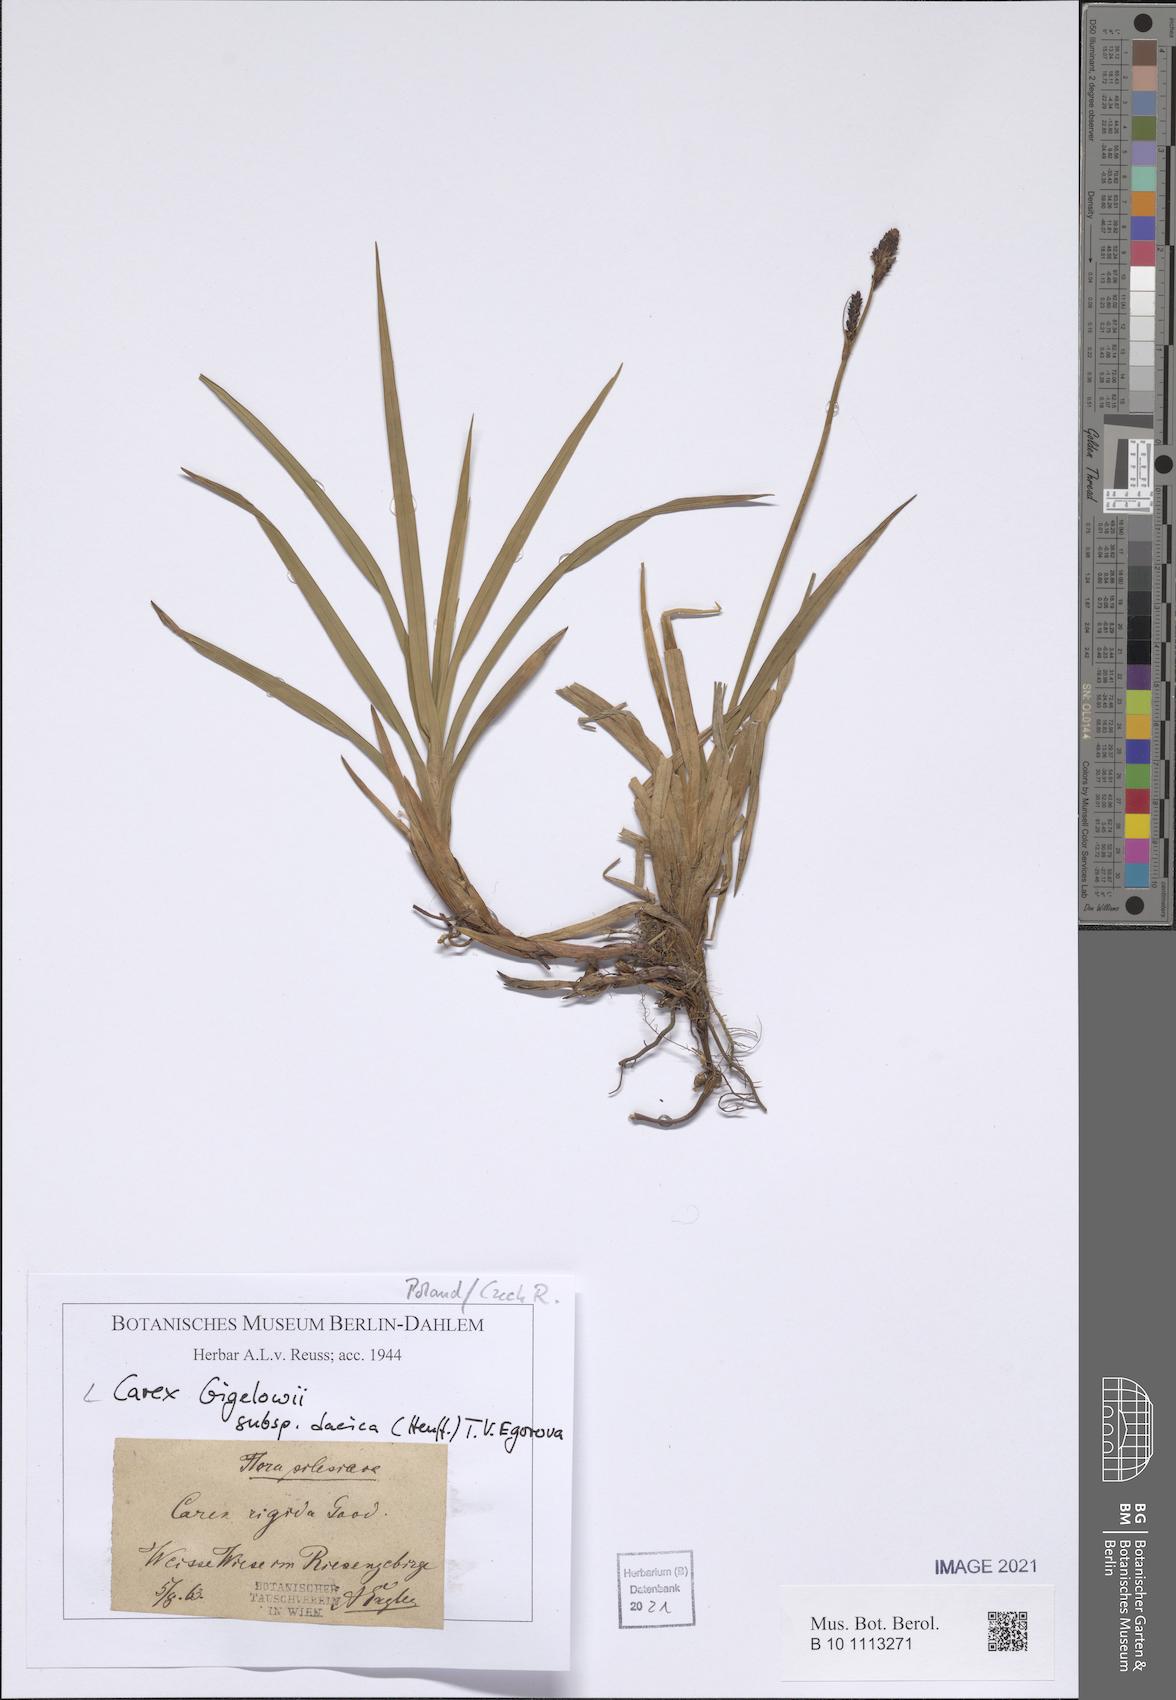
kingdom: Plantae
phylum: Tracheophyta
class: Liliopsida
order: Poales
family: Cyperaceae
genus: Carex
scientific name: Carex dacica
